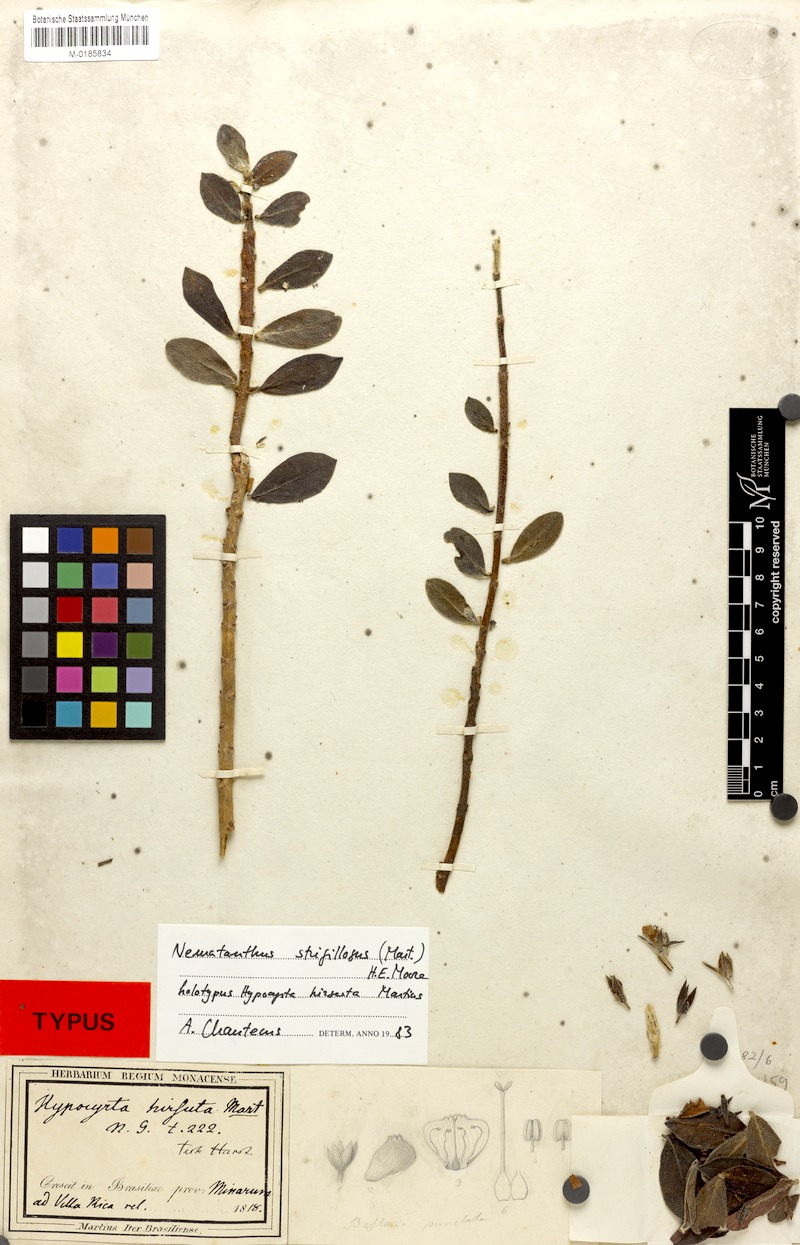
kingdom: Plantae
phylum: Tracheophyta
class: Magnoliopsida
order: Lamiales
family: Gesneriaceae
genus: Nematanthus
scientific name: Nematanthus strigillosus
